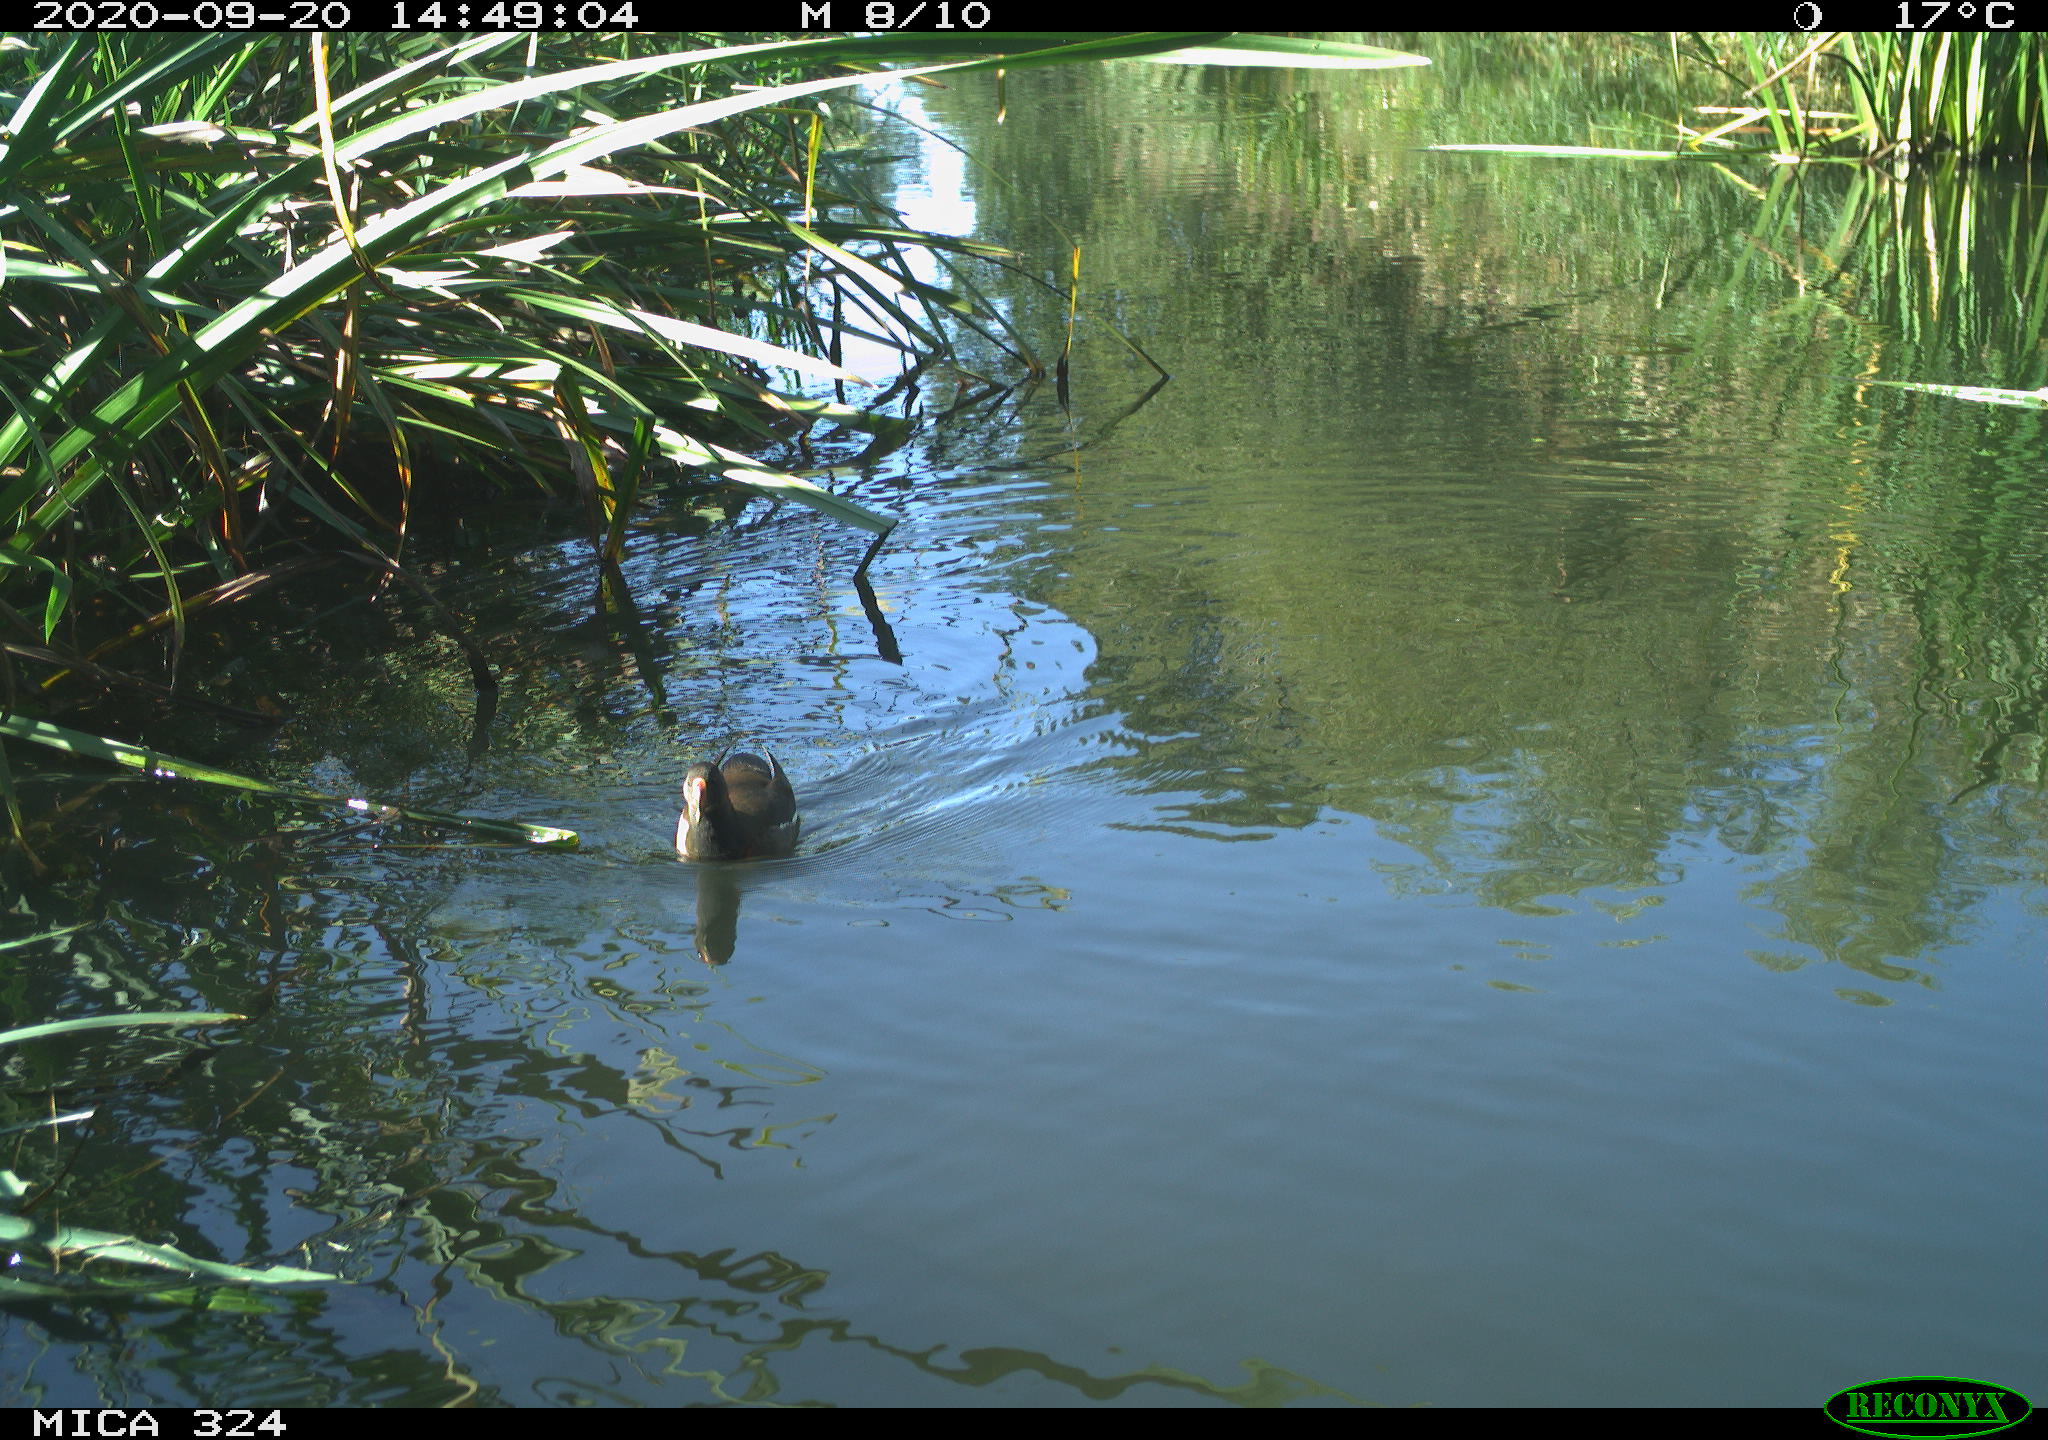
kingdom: Animalia
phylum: Chordata
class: Aves
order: Gruiformes
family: Rallidae
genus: Gallinula
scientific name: Gallinula chloropus
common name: Common moorhen
